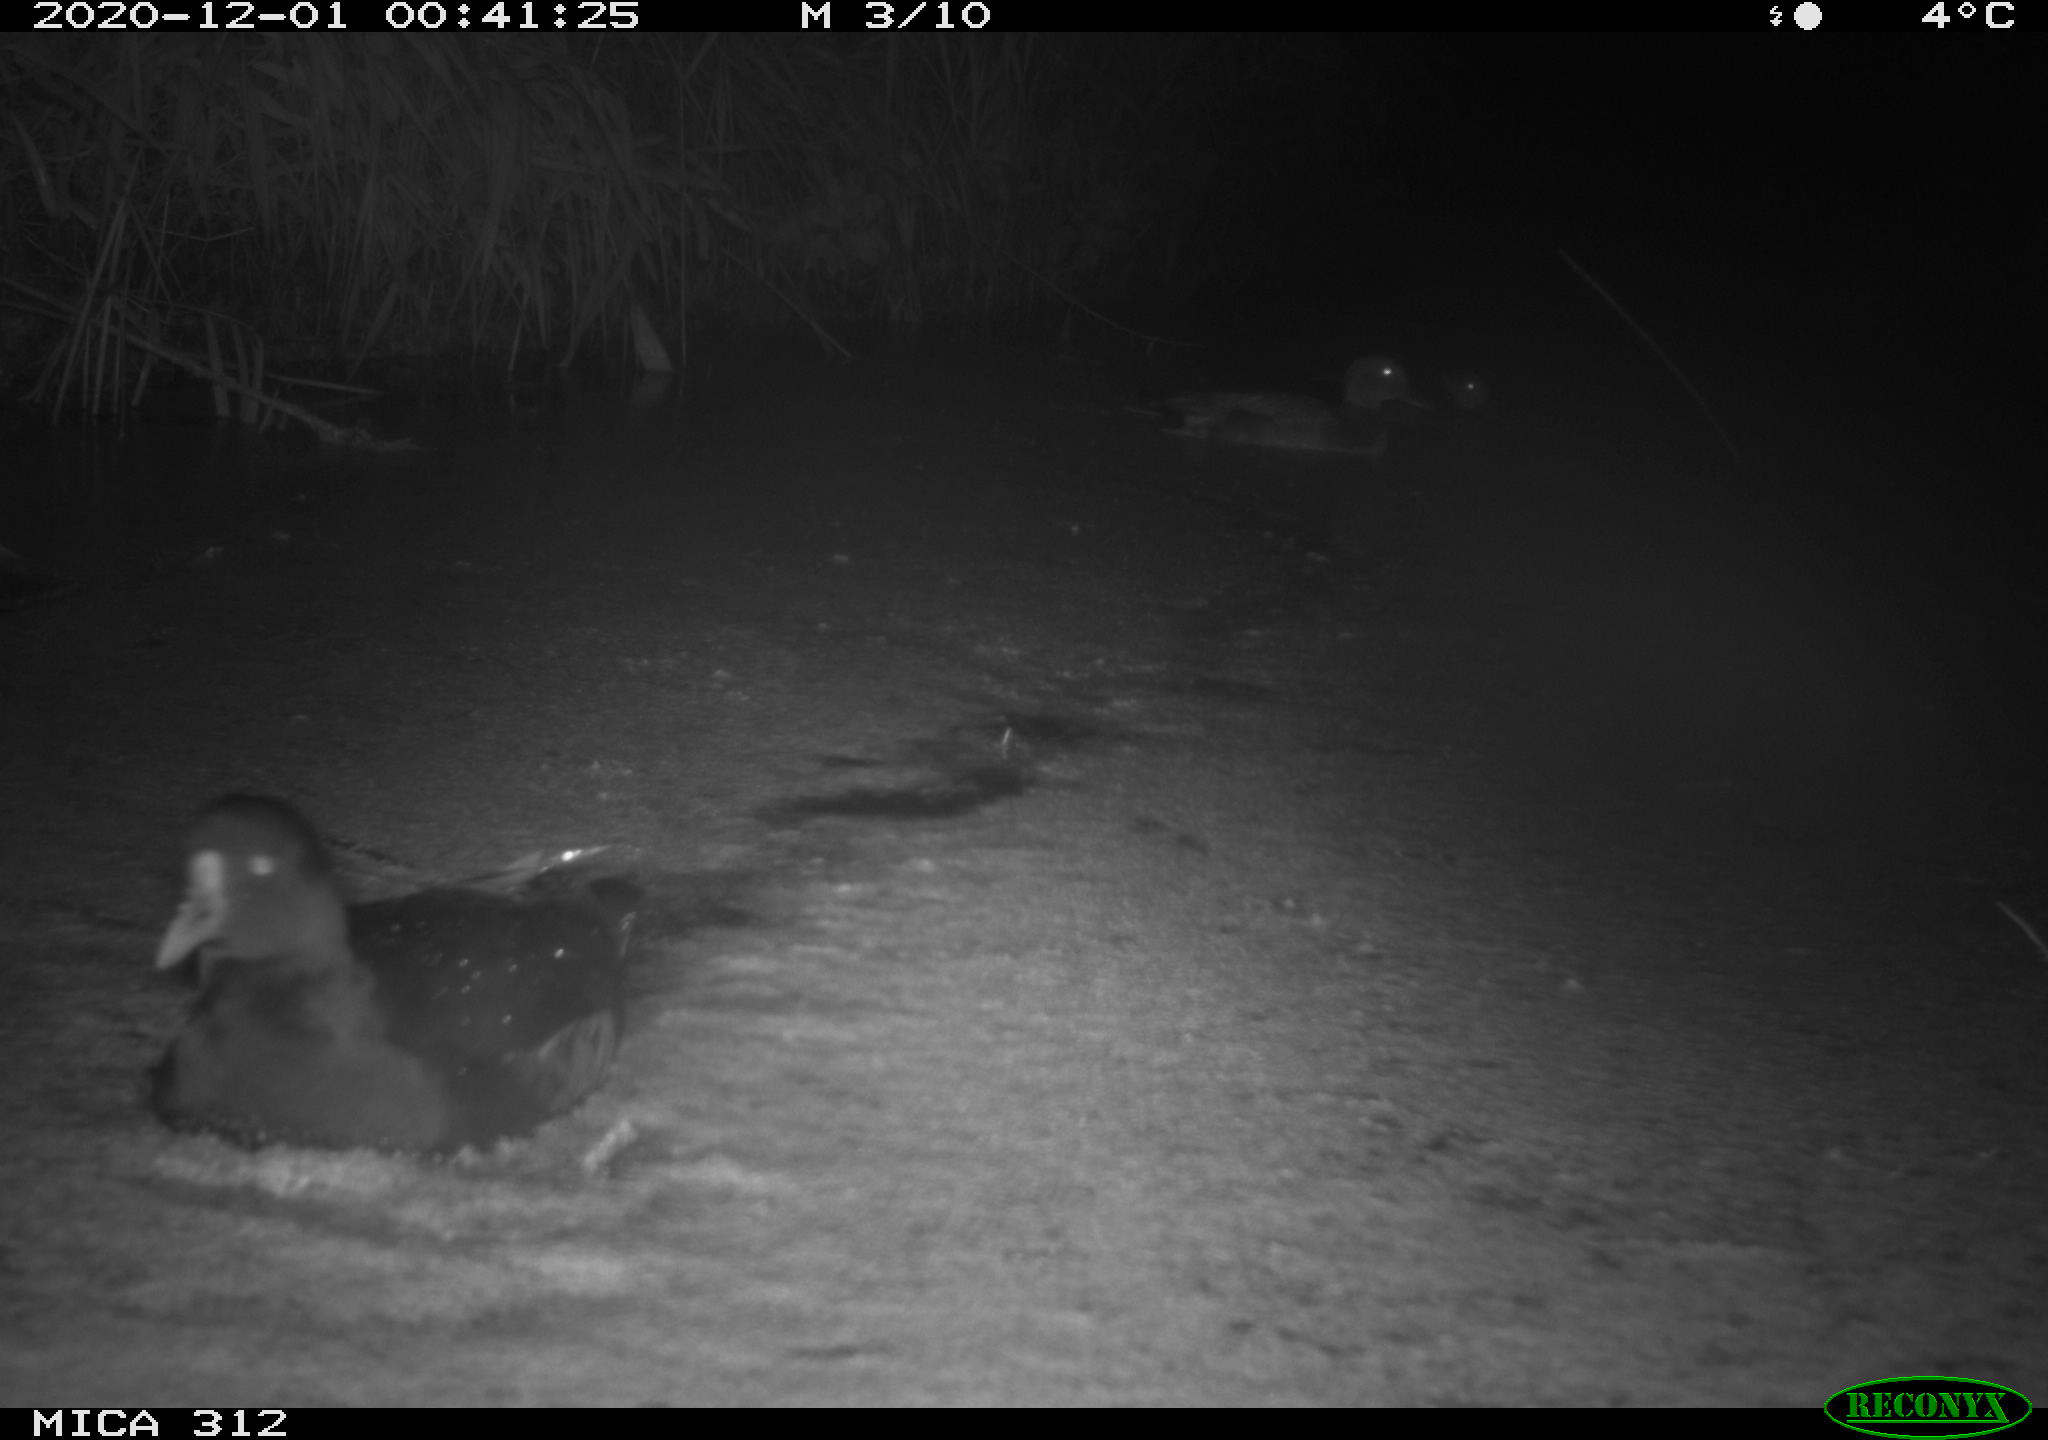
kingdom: Animalia
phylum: Chordata
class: Aves
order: Gruiformes
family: Rallidae
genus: Gallinula
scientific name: Gallinula chloropus
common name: Common moorhen
